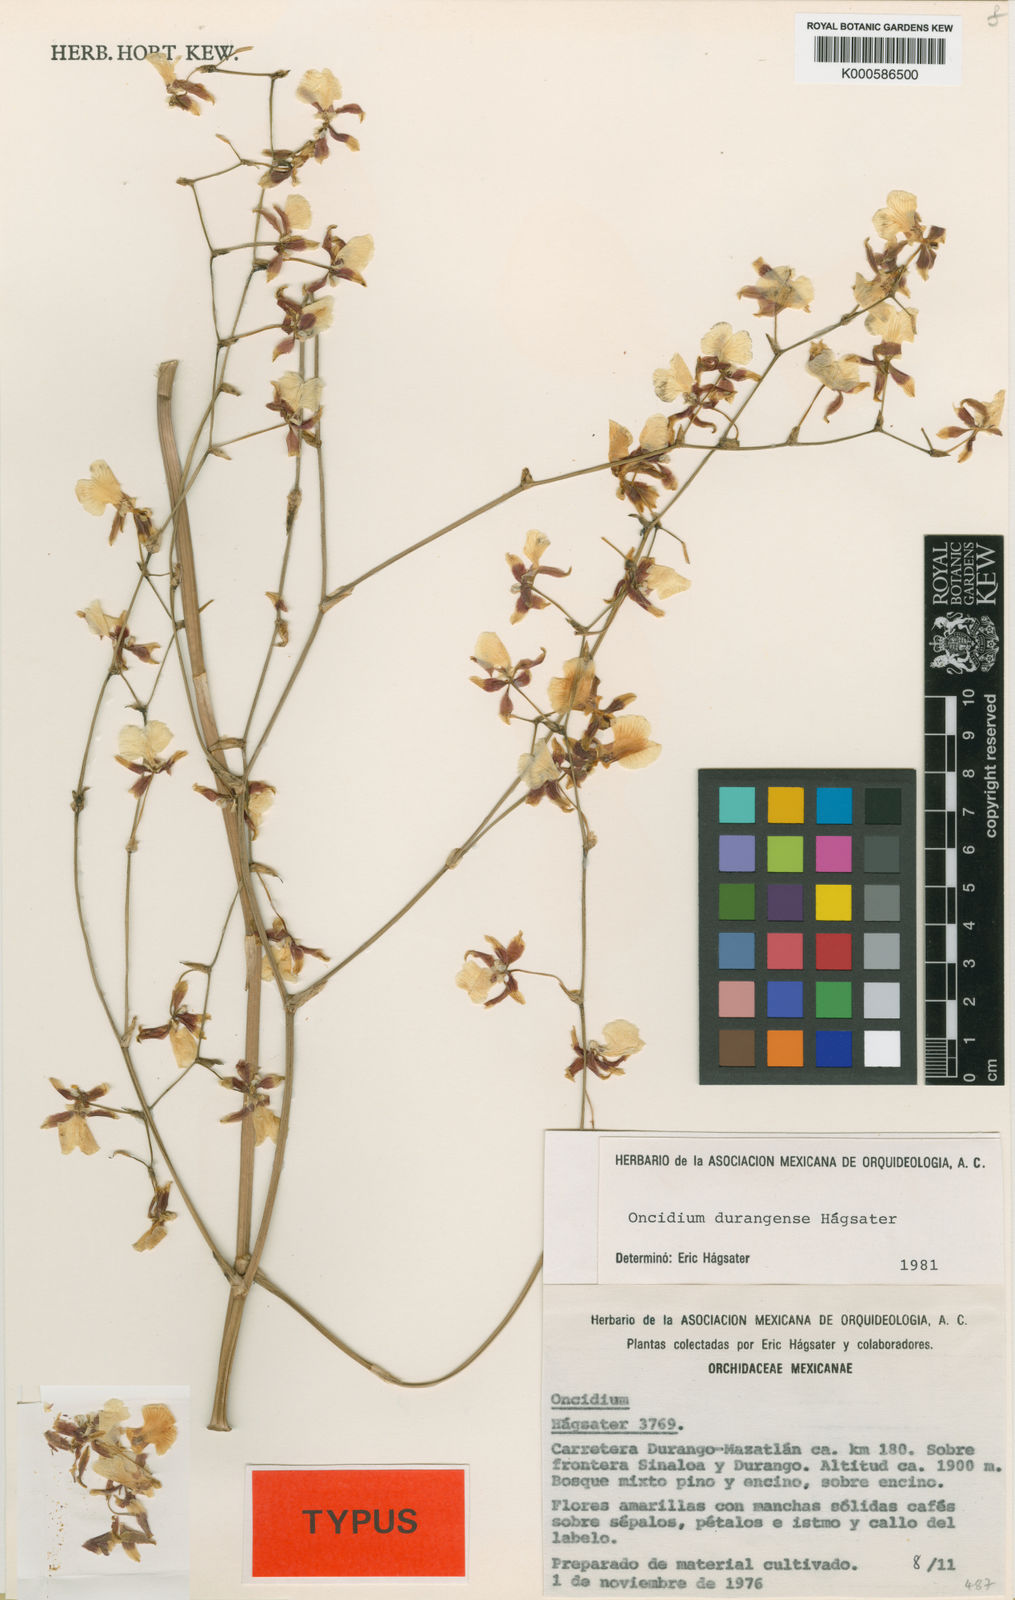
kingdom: Plantae
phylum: Tracheophyta
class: Liliopsida
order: Asparagales
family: Orchidaceae
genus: Oncidium
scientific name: Oncidium
